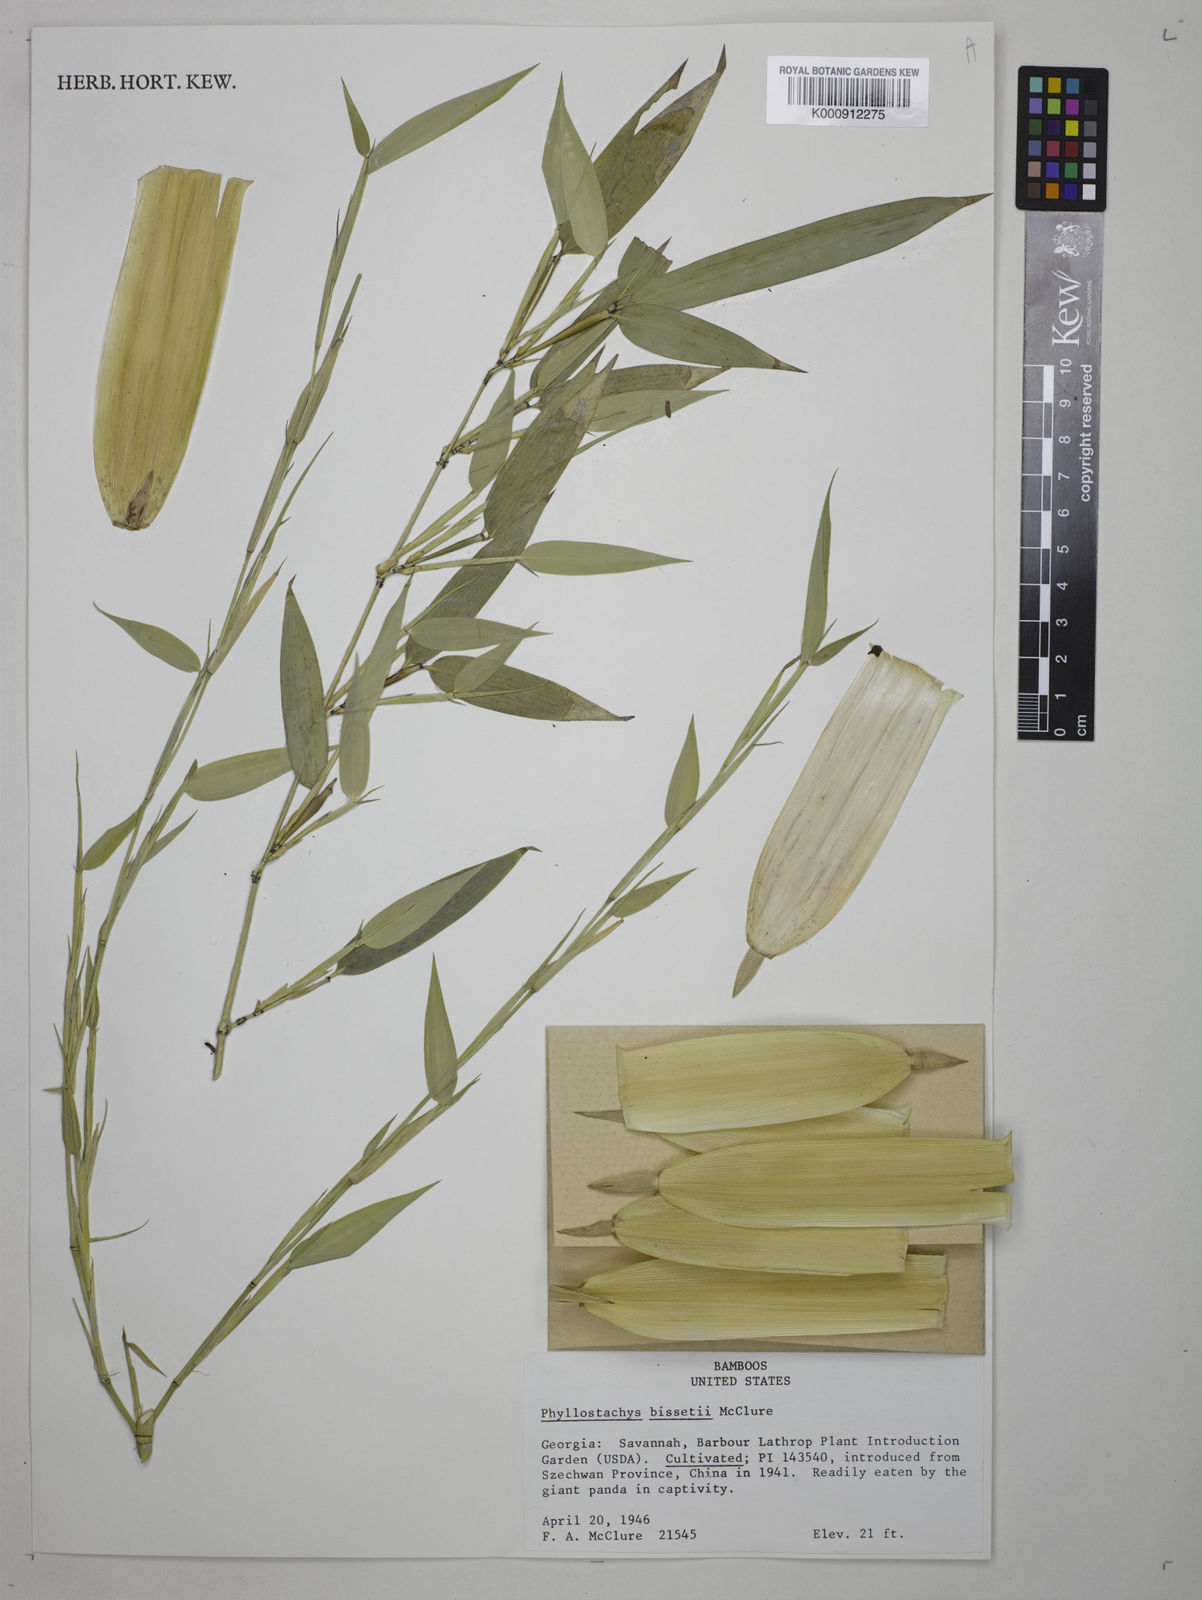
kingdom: Plantae
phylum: Tracheophyta
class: Liliopsida
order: Poales
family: Poaceae
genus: Phyllostachys
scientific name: Phyllostachys bissetii
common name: Bamboo
